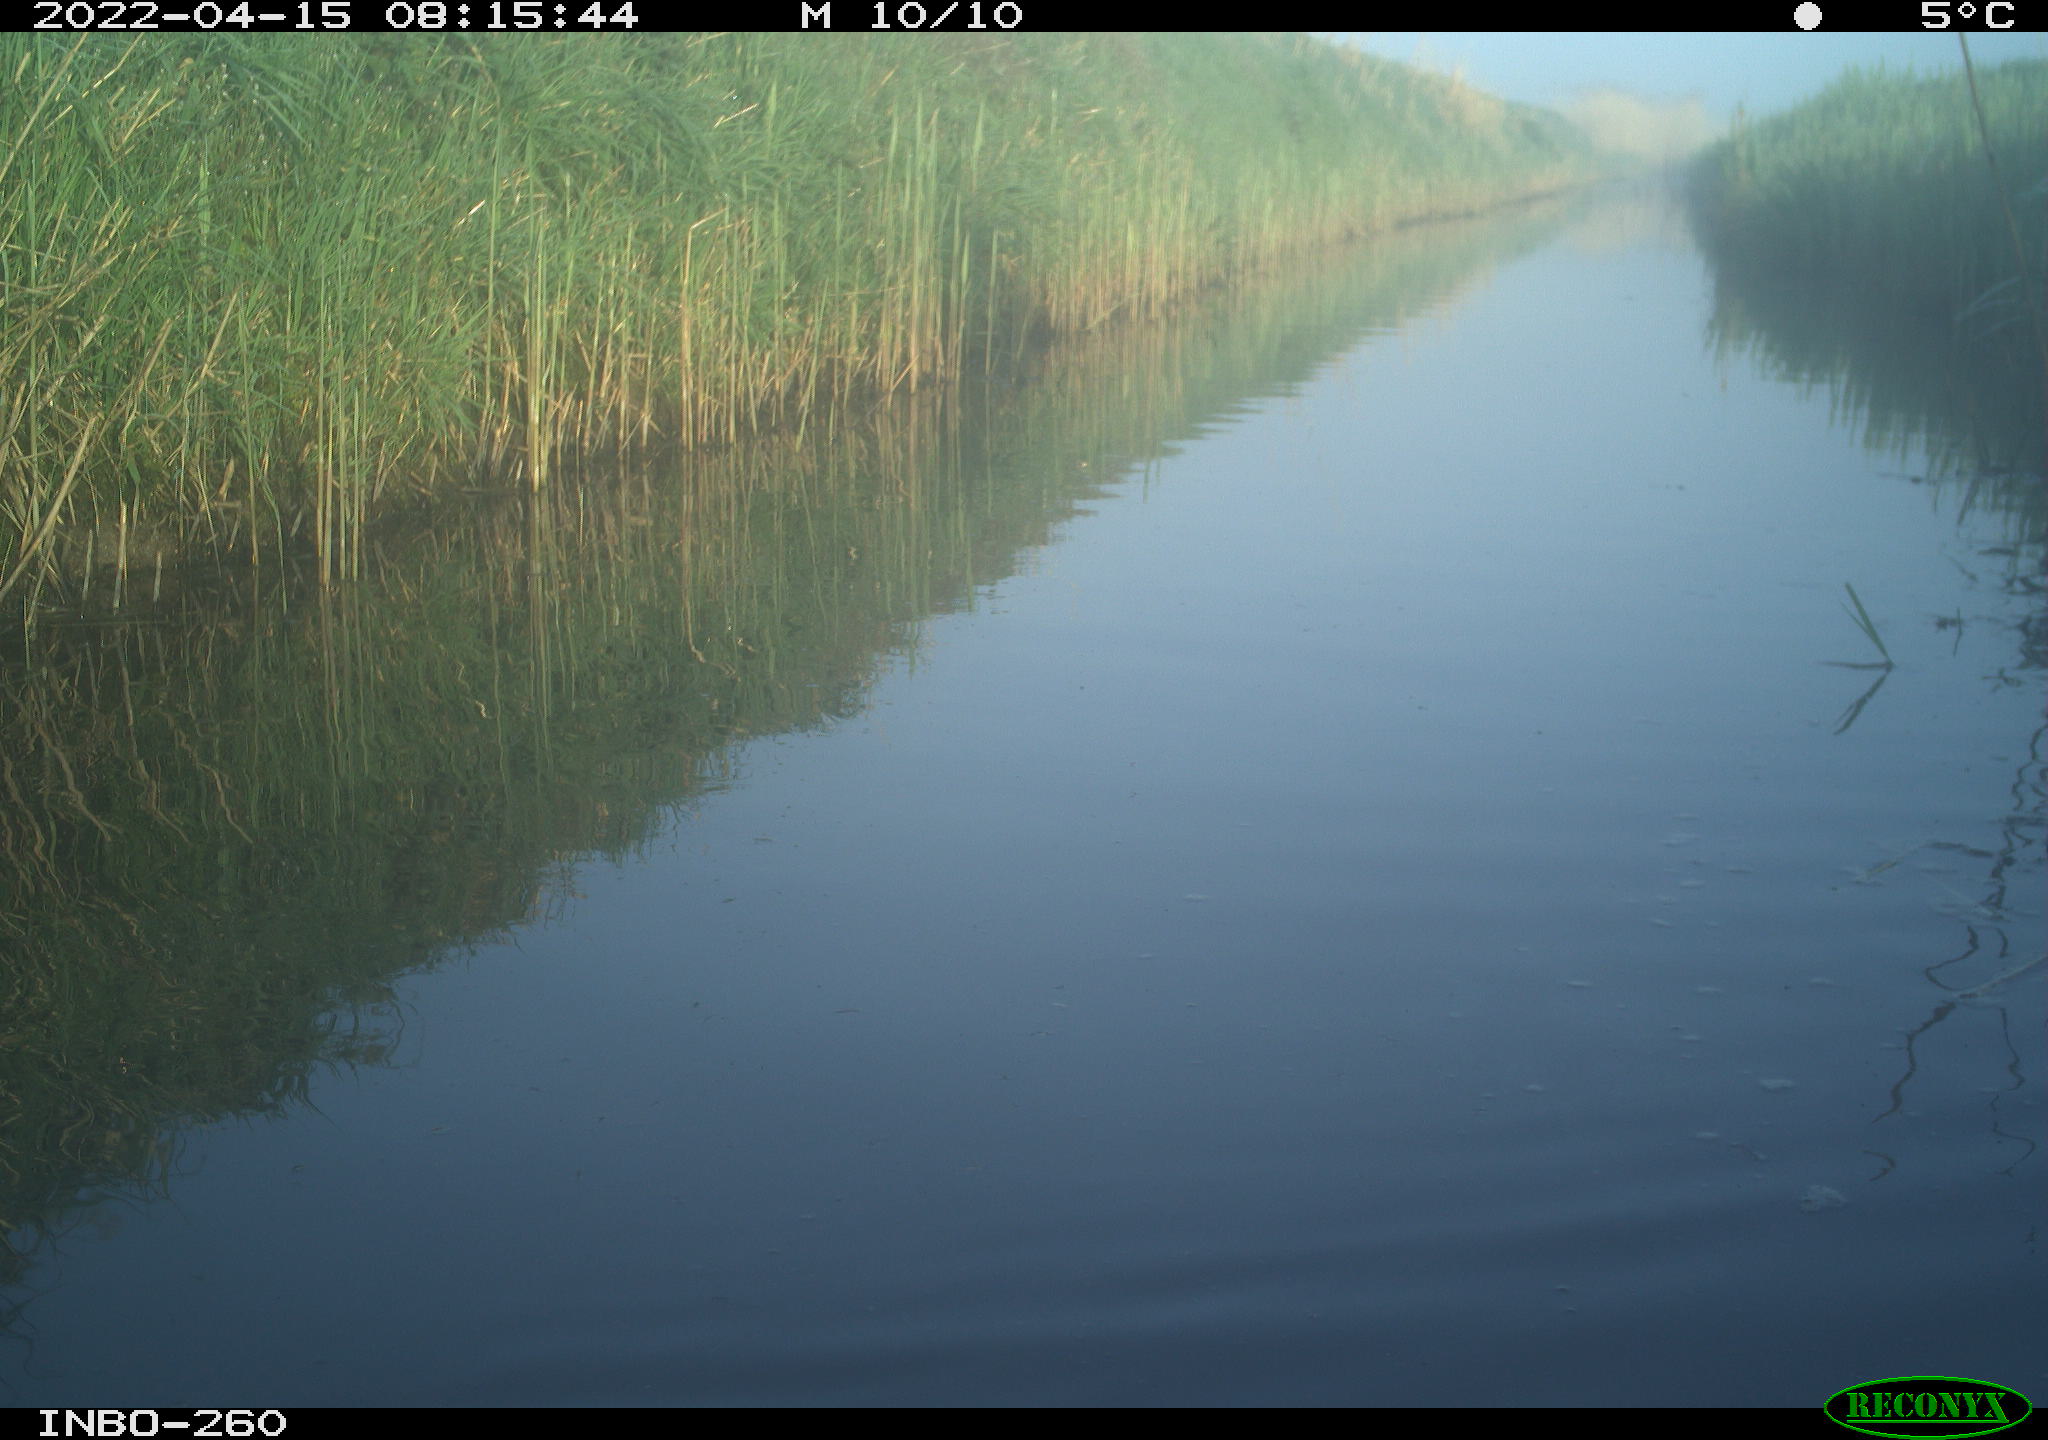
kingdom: Animalia
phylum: Chordata
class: Aves
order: Gruiformes
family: Rallidae
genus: Fulica
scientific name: Fulica atra
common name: Eurasian coot
